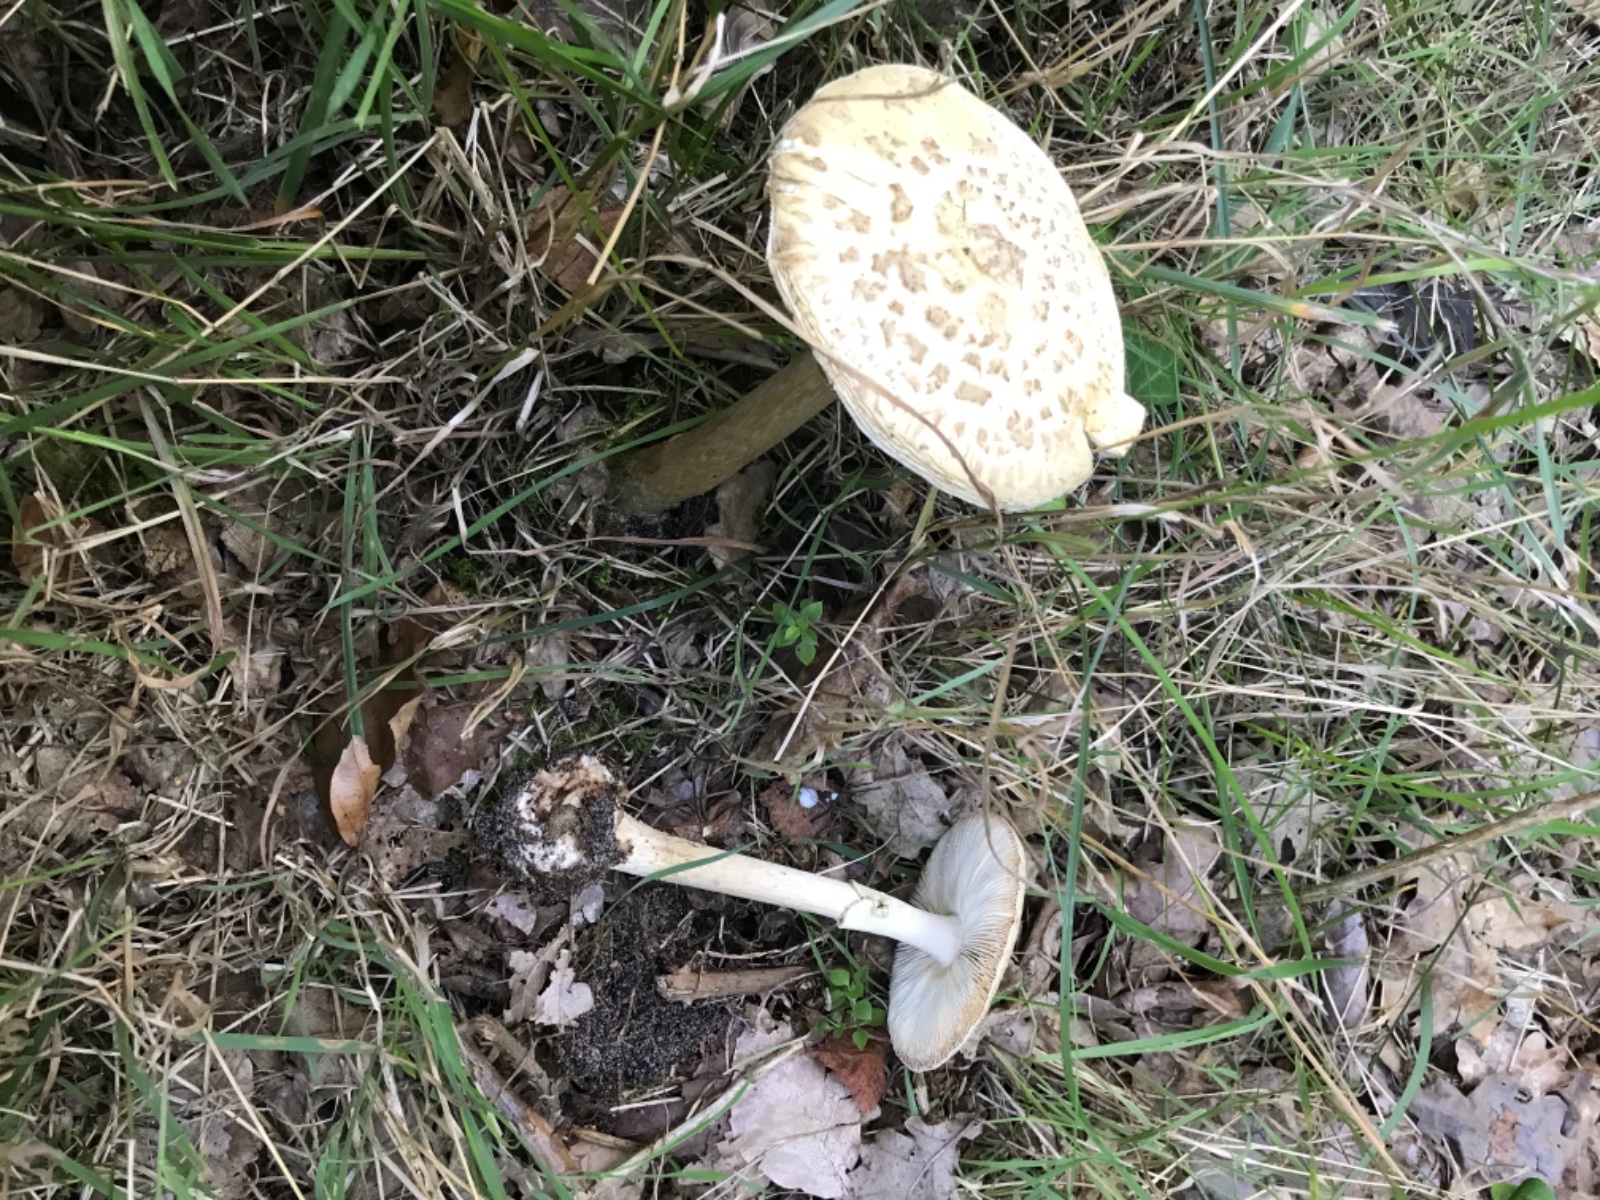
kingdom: Fungi
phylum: Basidiomycota
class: Agaricomycetes
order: Agaricales
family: Amanitaceae
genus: Amanita
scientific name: Amanita citrina
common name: kugleknoldet fluesvamp
